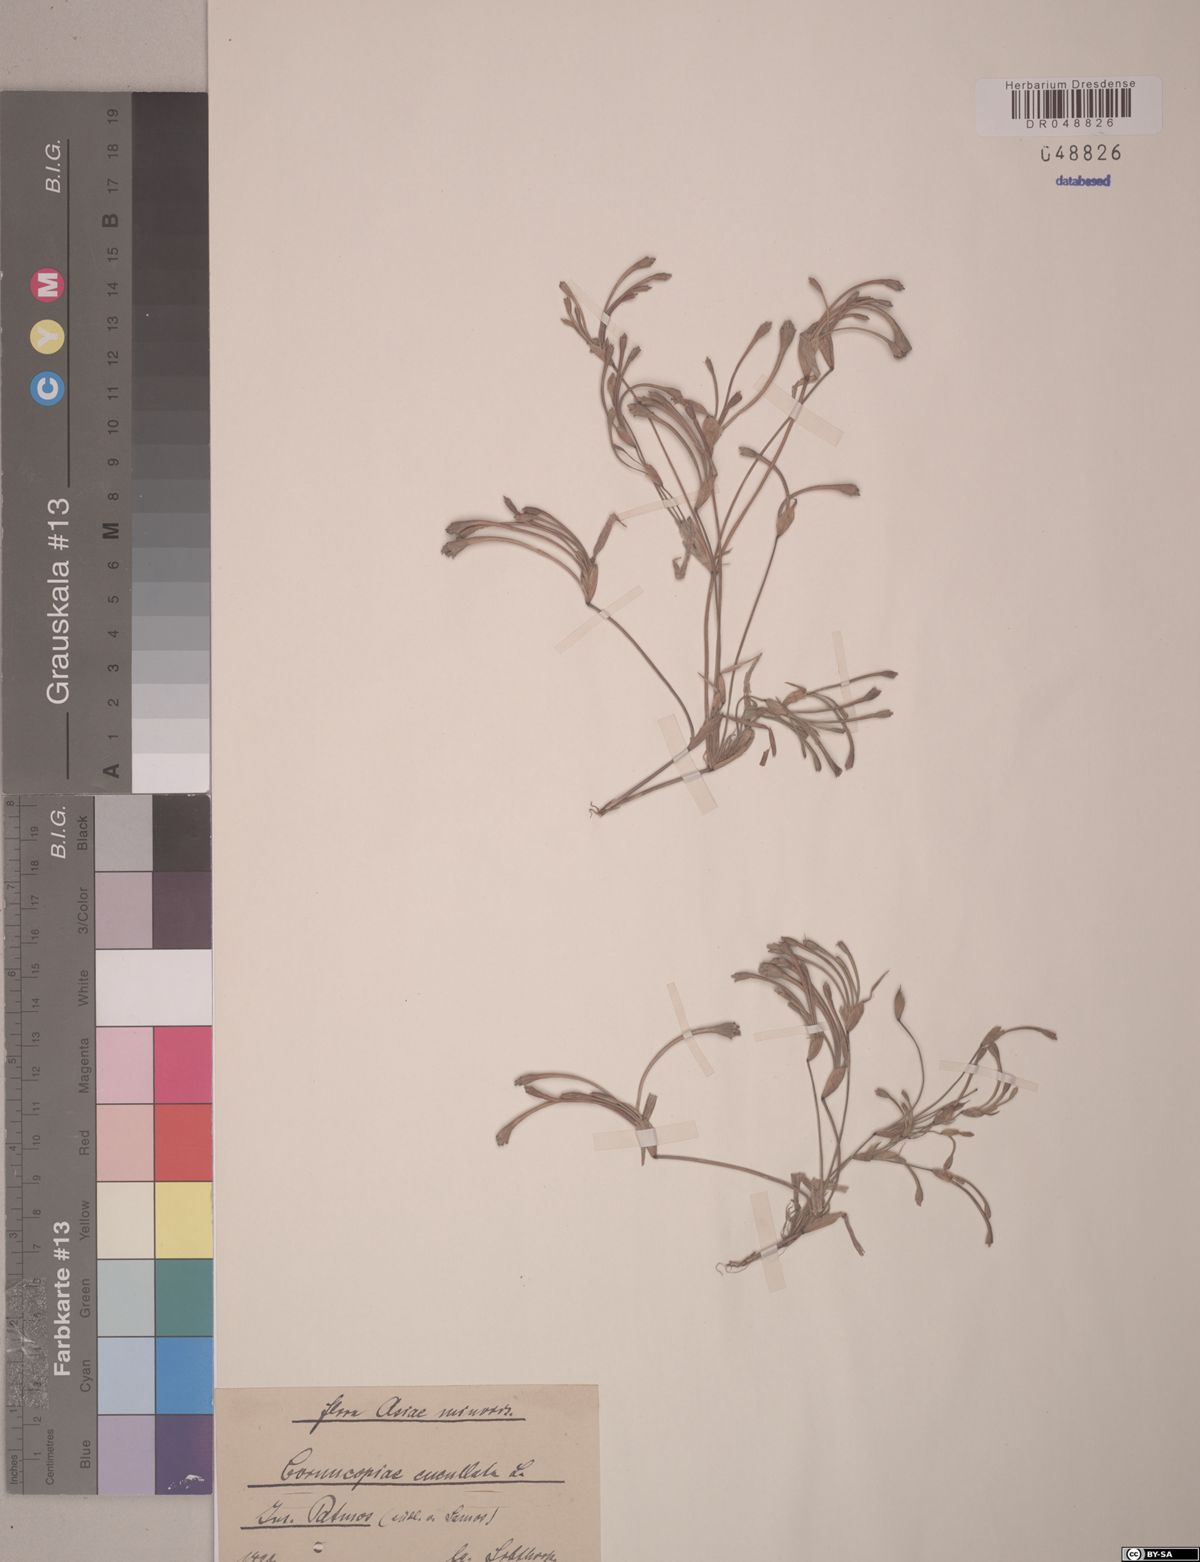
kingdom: Plantae
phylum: Tracheophyta
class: Liliopsida
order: Poales
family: Poaceae
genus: Cornucopiae
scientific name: Cornucopiae cucullatum
